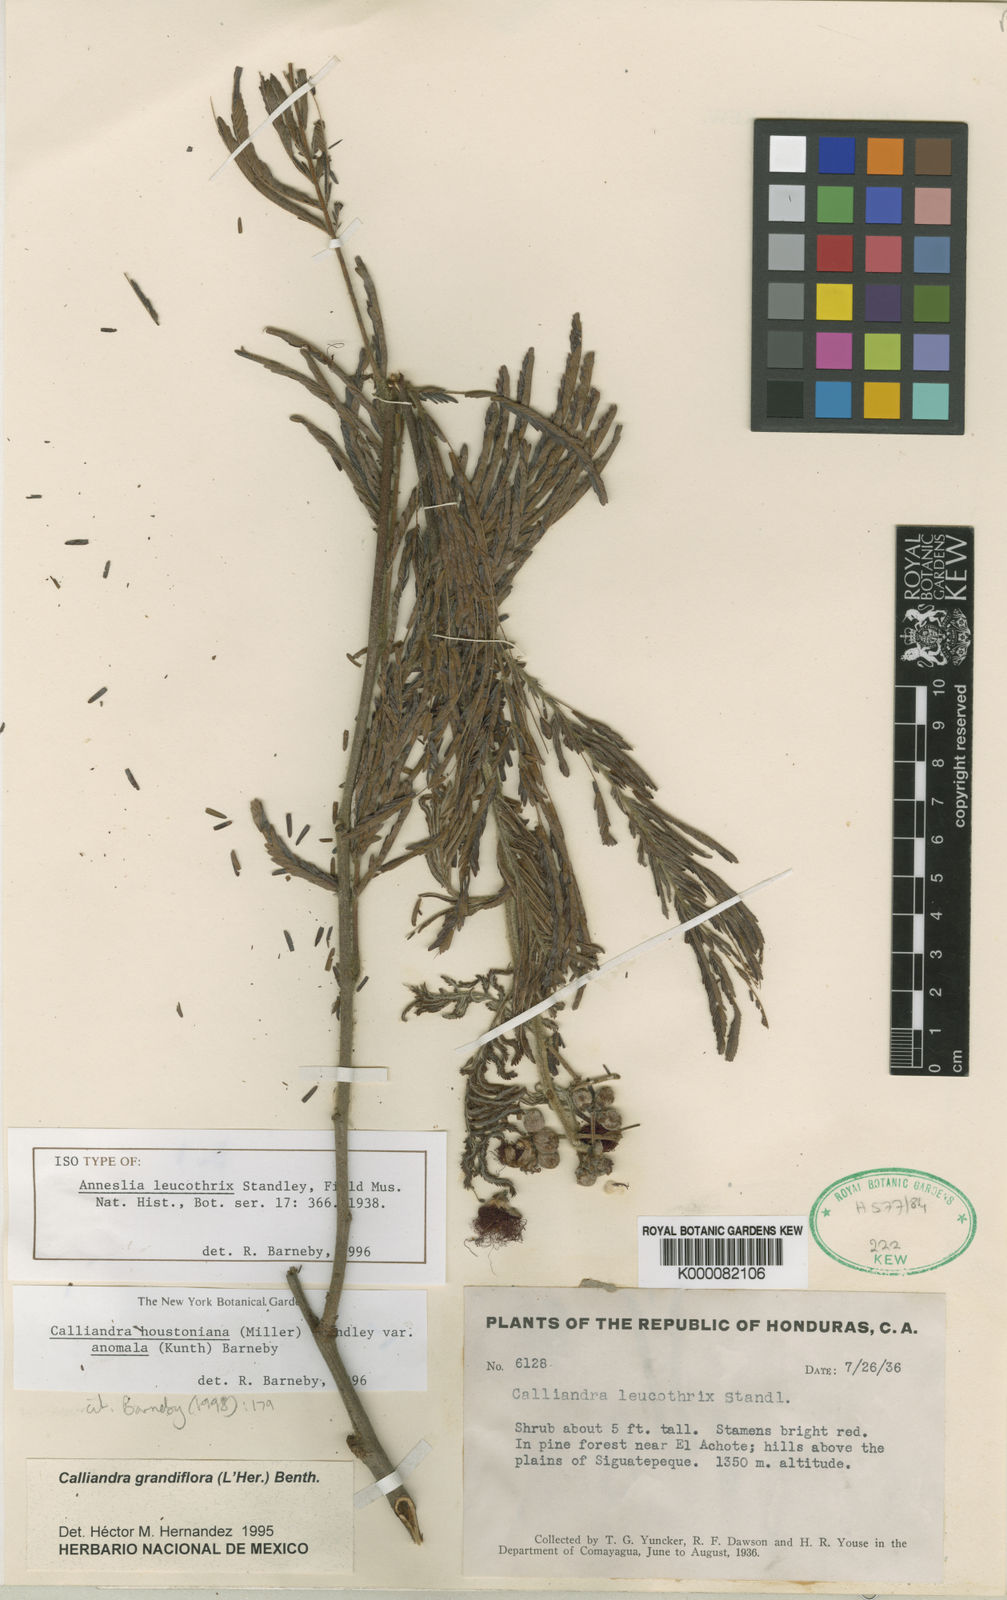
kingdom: Plantae
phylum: Tracheophyta
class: Magnoliopsida
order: Fabales
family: Fabaceae
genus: Calliandra
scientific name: Calliandra houstoniana
